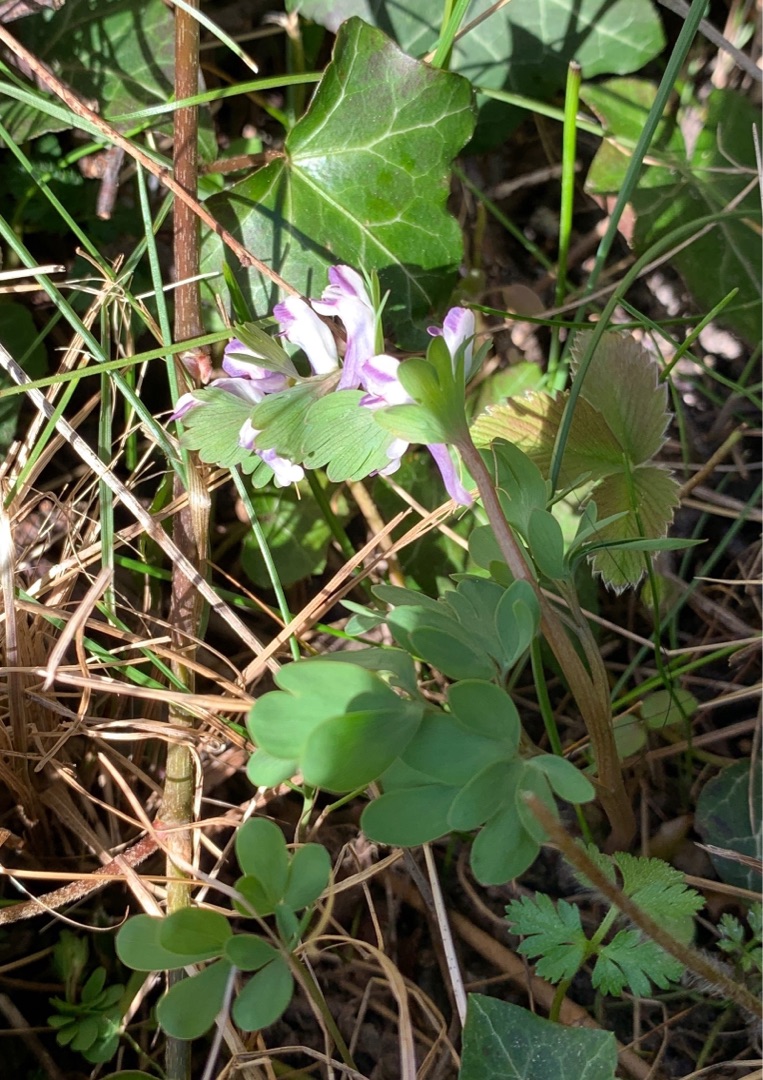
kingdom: Plantae
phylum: Tracheophyta
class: Magnoliopsida
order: Ranunculales
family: Papaveraceae
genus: Corydalis
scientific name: Corydalis pumila
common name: Finger-lærkespore
